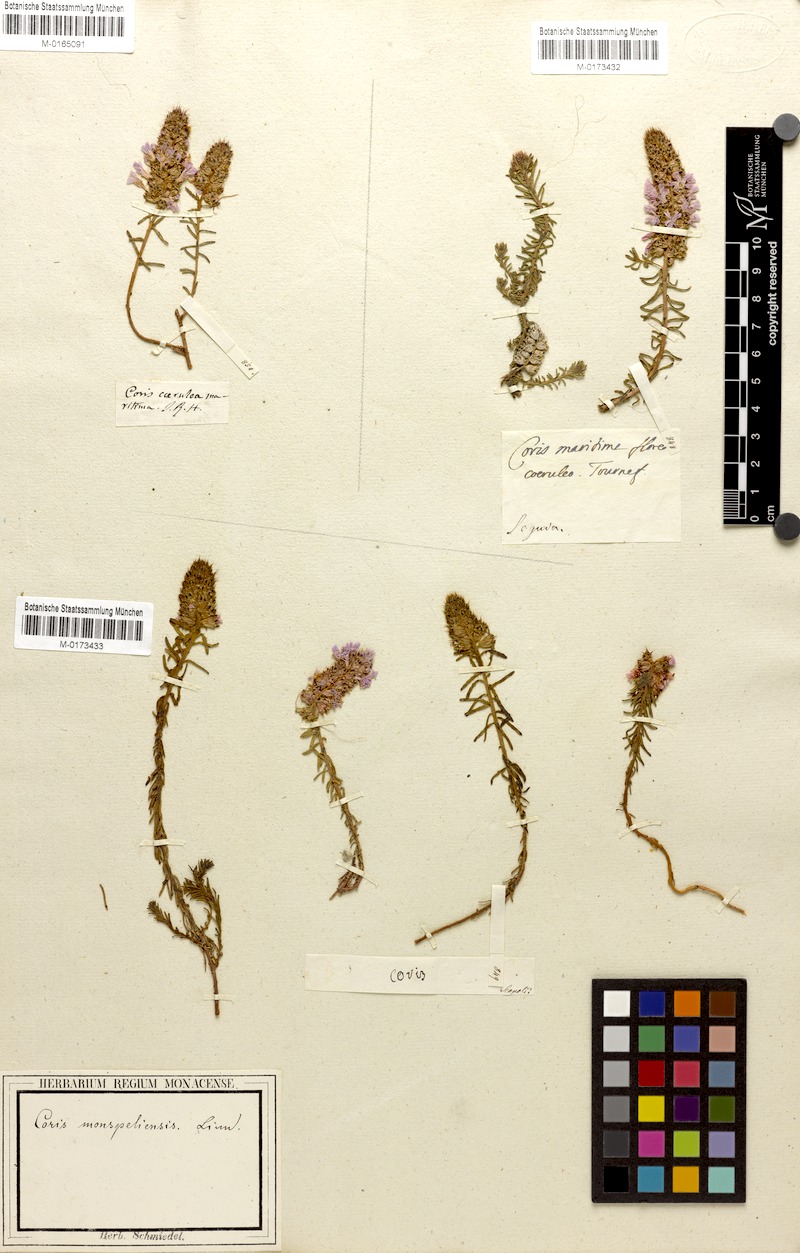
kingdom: Plantae
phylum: Tracheophyta
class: Magnoliopsida
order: Ericales
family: Primulaceae
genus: Coris
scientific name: Coris monspeliensis
